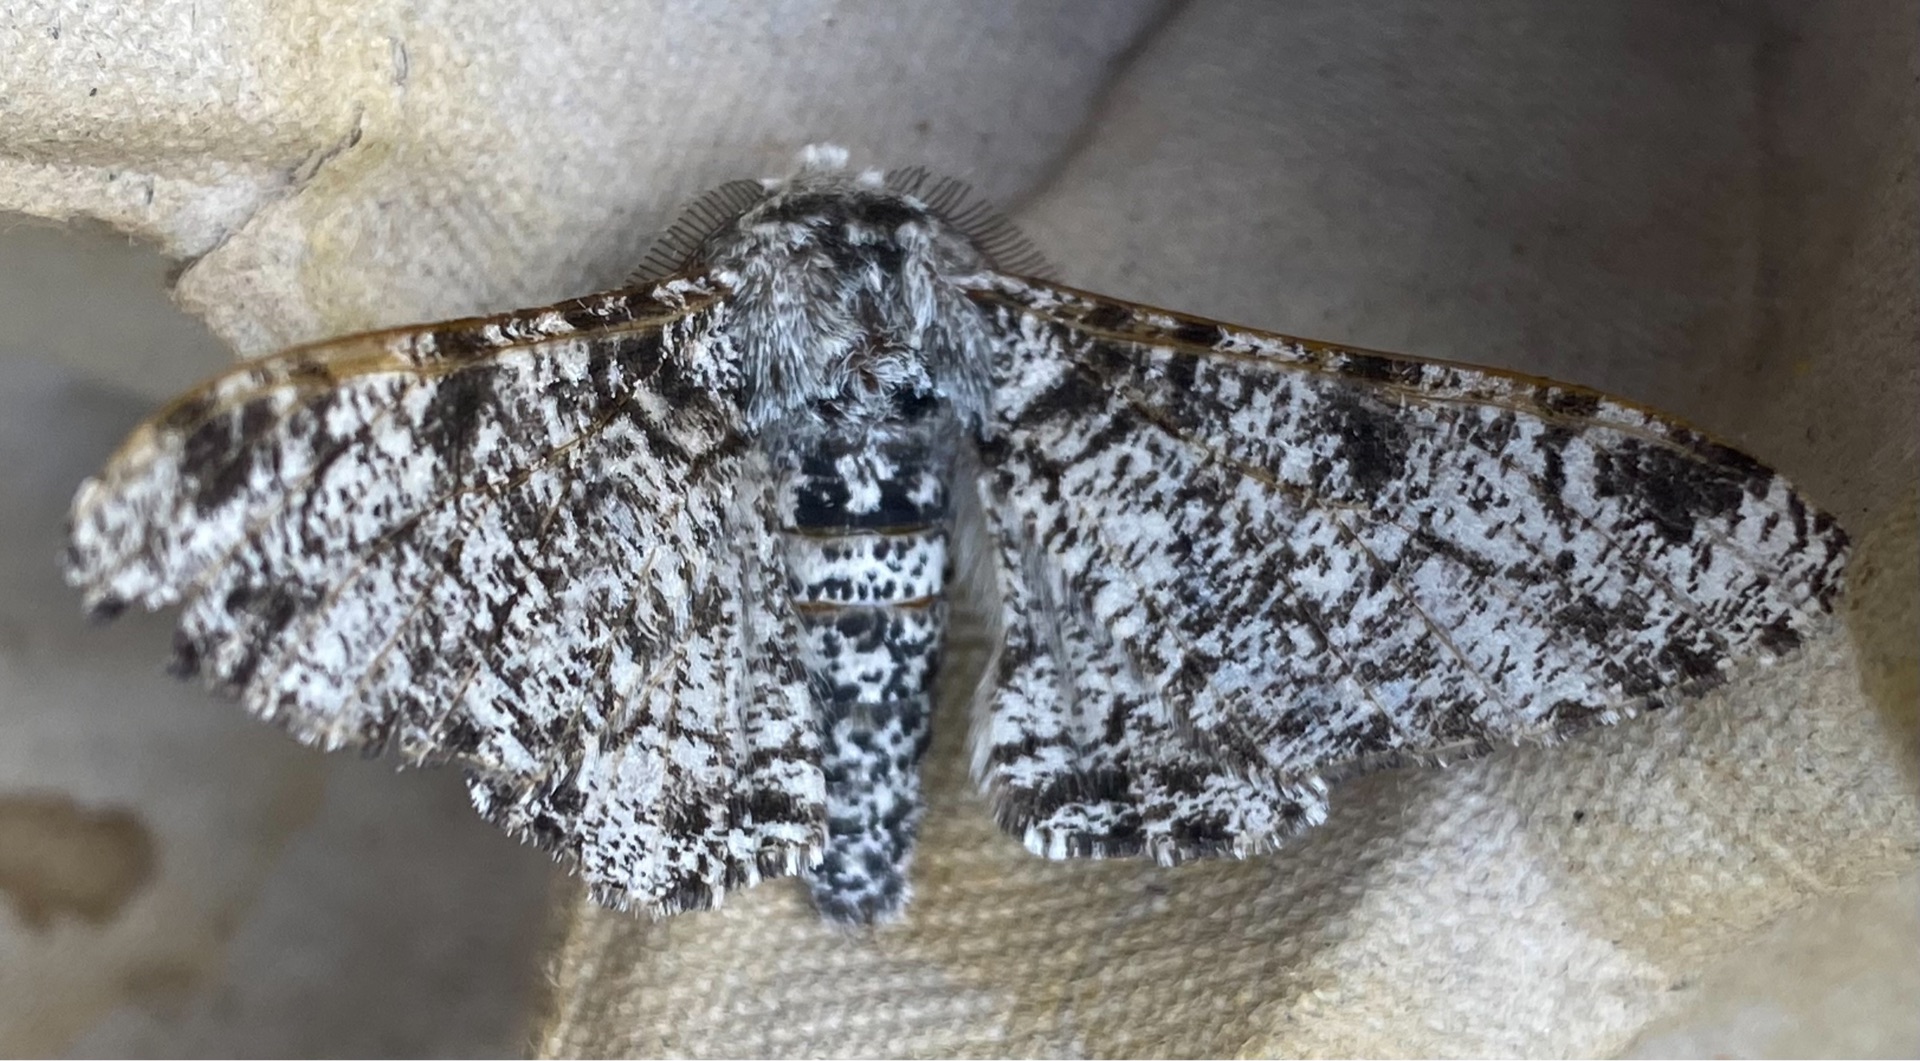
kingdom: Animalia
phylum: Arthropoda
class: Insecta
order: Lepidoptera
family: Geometridae
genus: Biston
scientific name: Biston betularia
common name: Birkemåler
